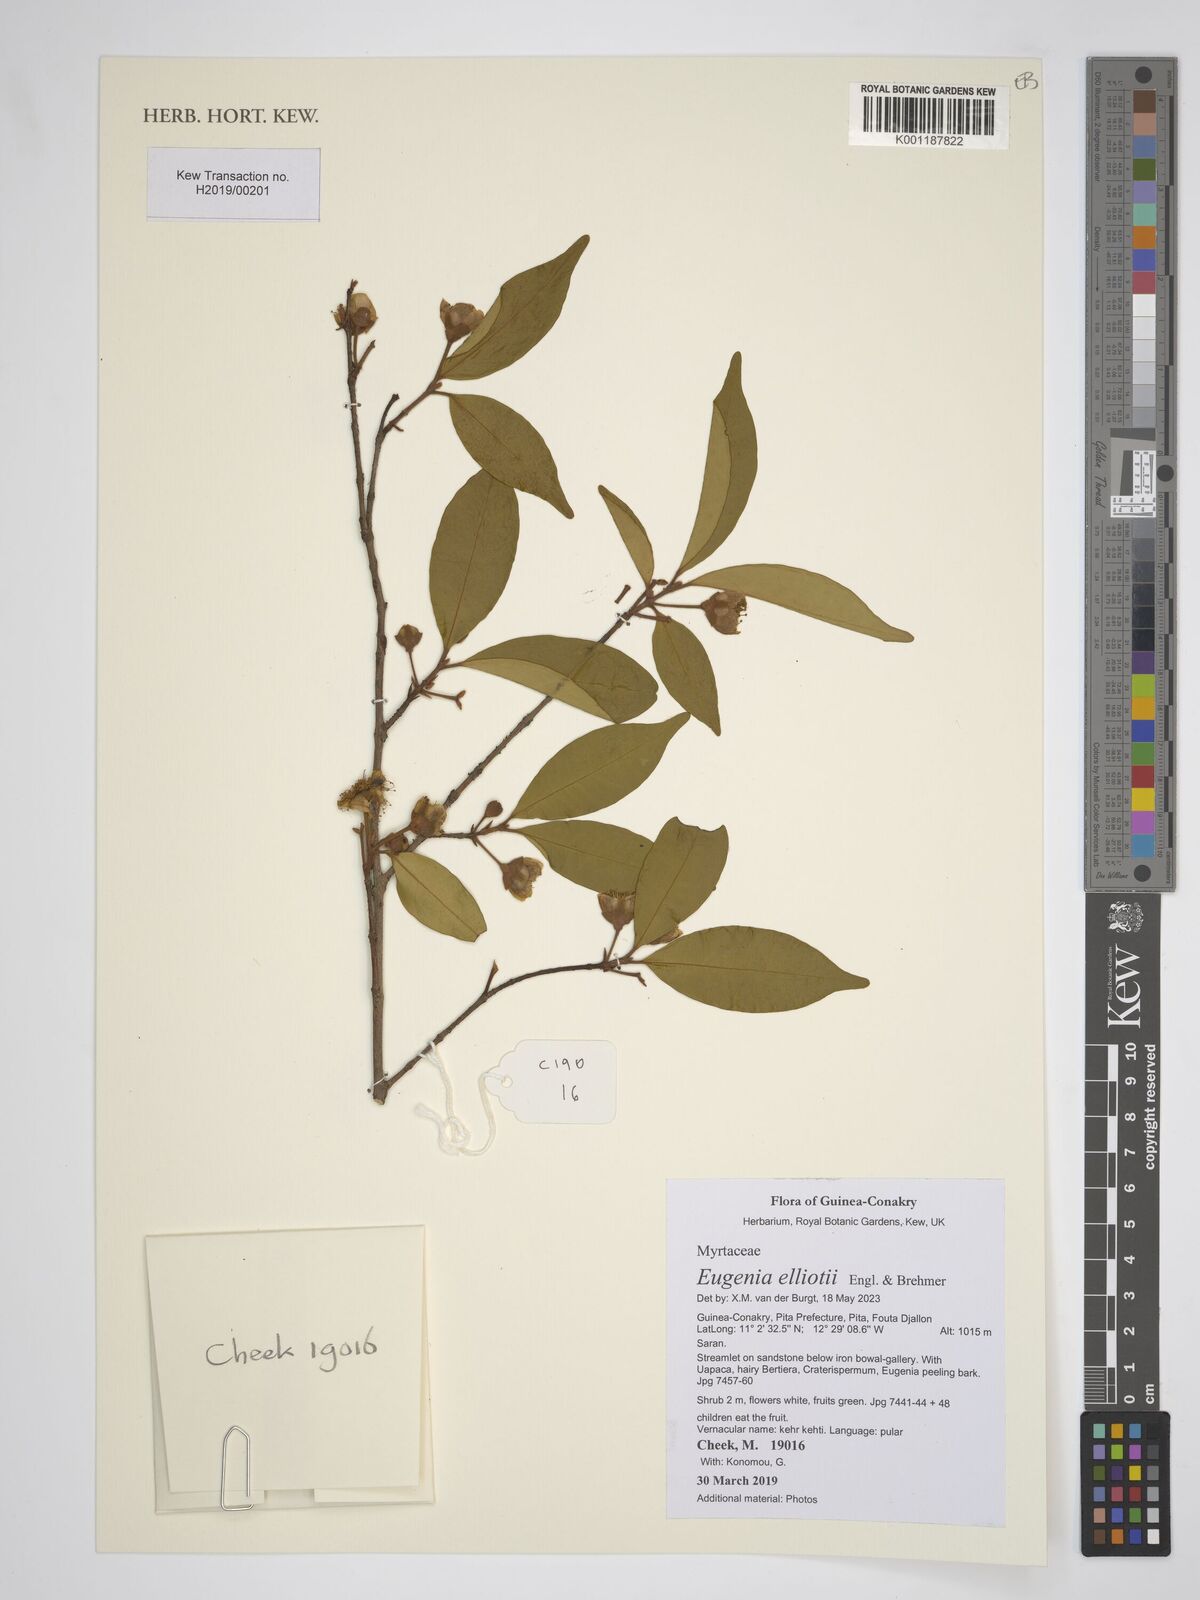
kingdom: Plantae
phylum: Tracheophyta
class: Magnoliopsida
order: Myrtales
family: Myrtaceae
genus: Eugenia
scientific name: Eugenia elliotii
